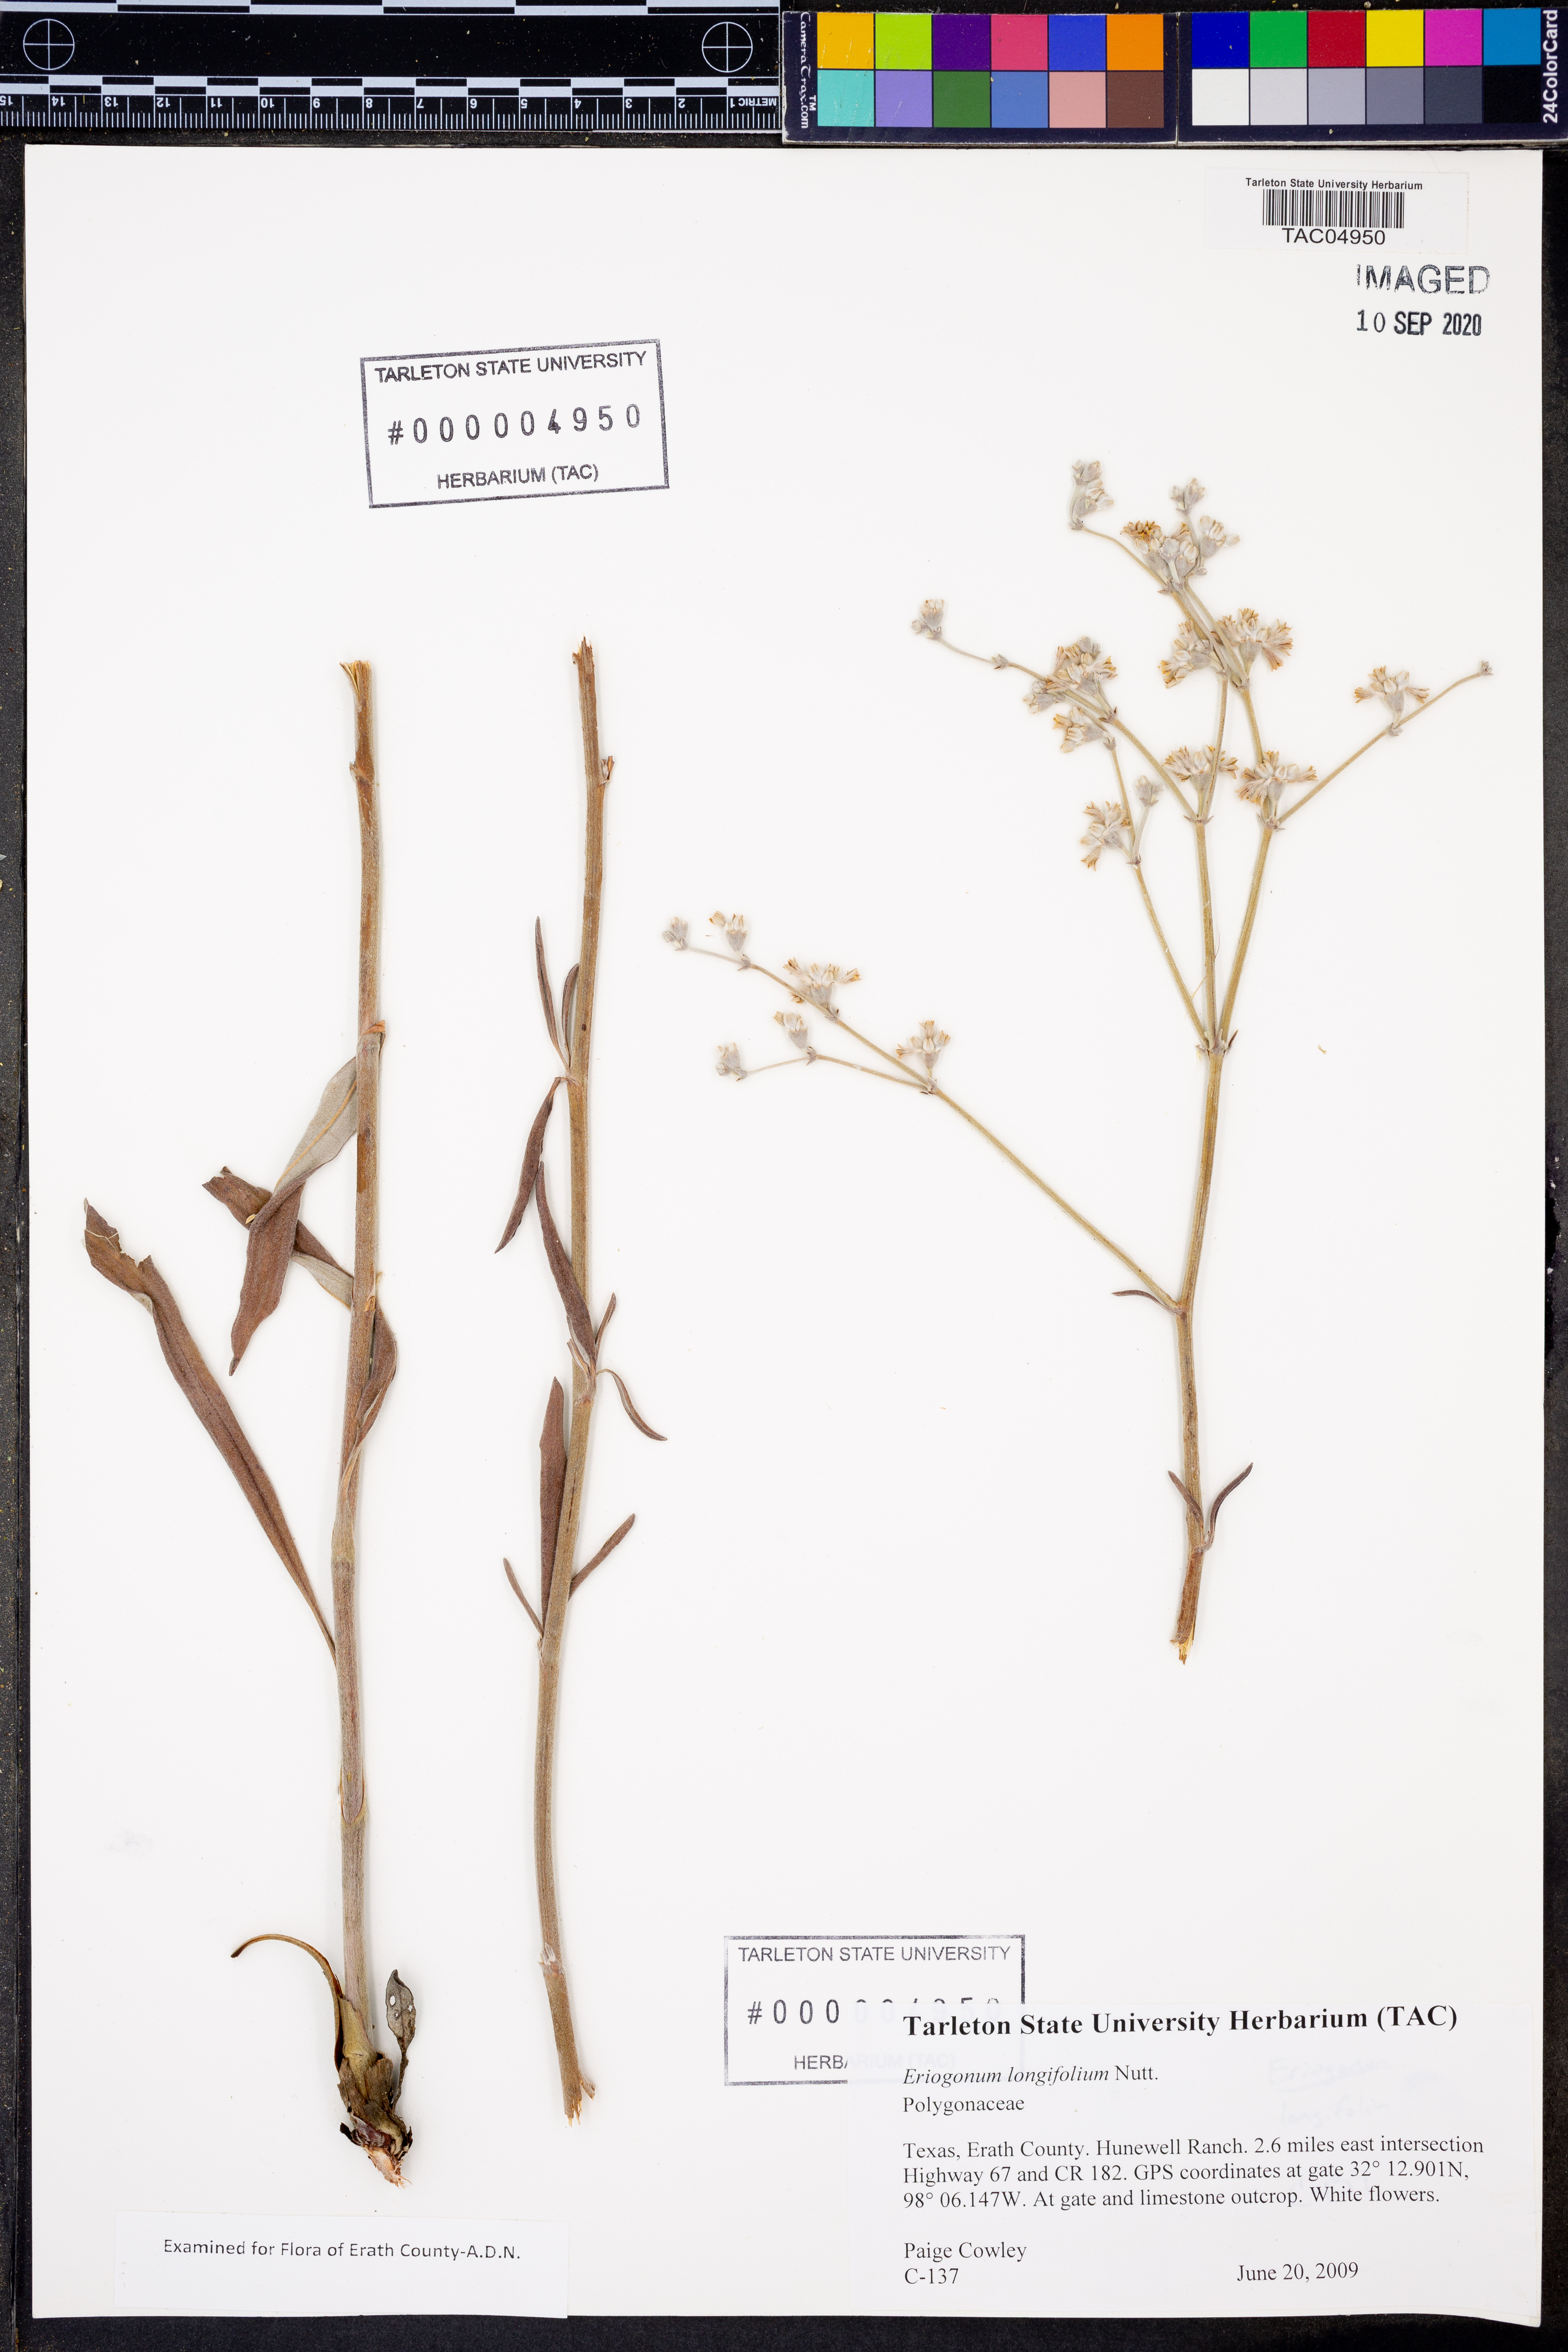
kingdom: Plantae
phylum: Tracheophyta
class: Magnoliopsida
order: Caryophyllales
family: Polygonaceae
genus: Eriogonum
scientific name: Eriogonum longifolium
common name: Longleaf wild buckwheat
